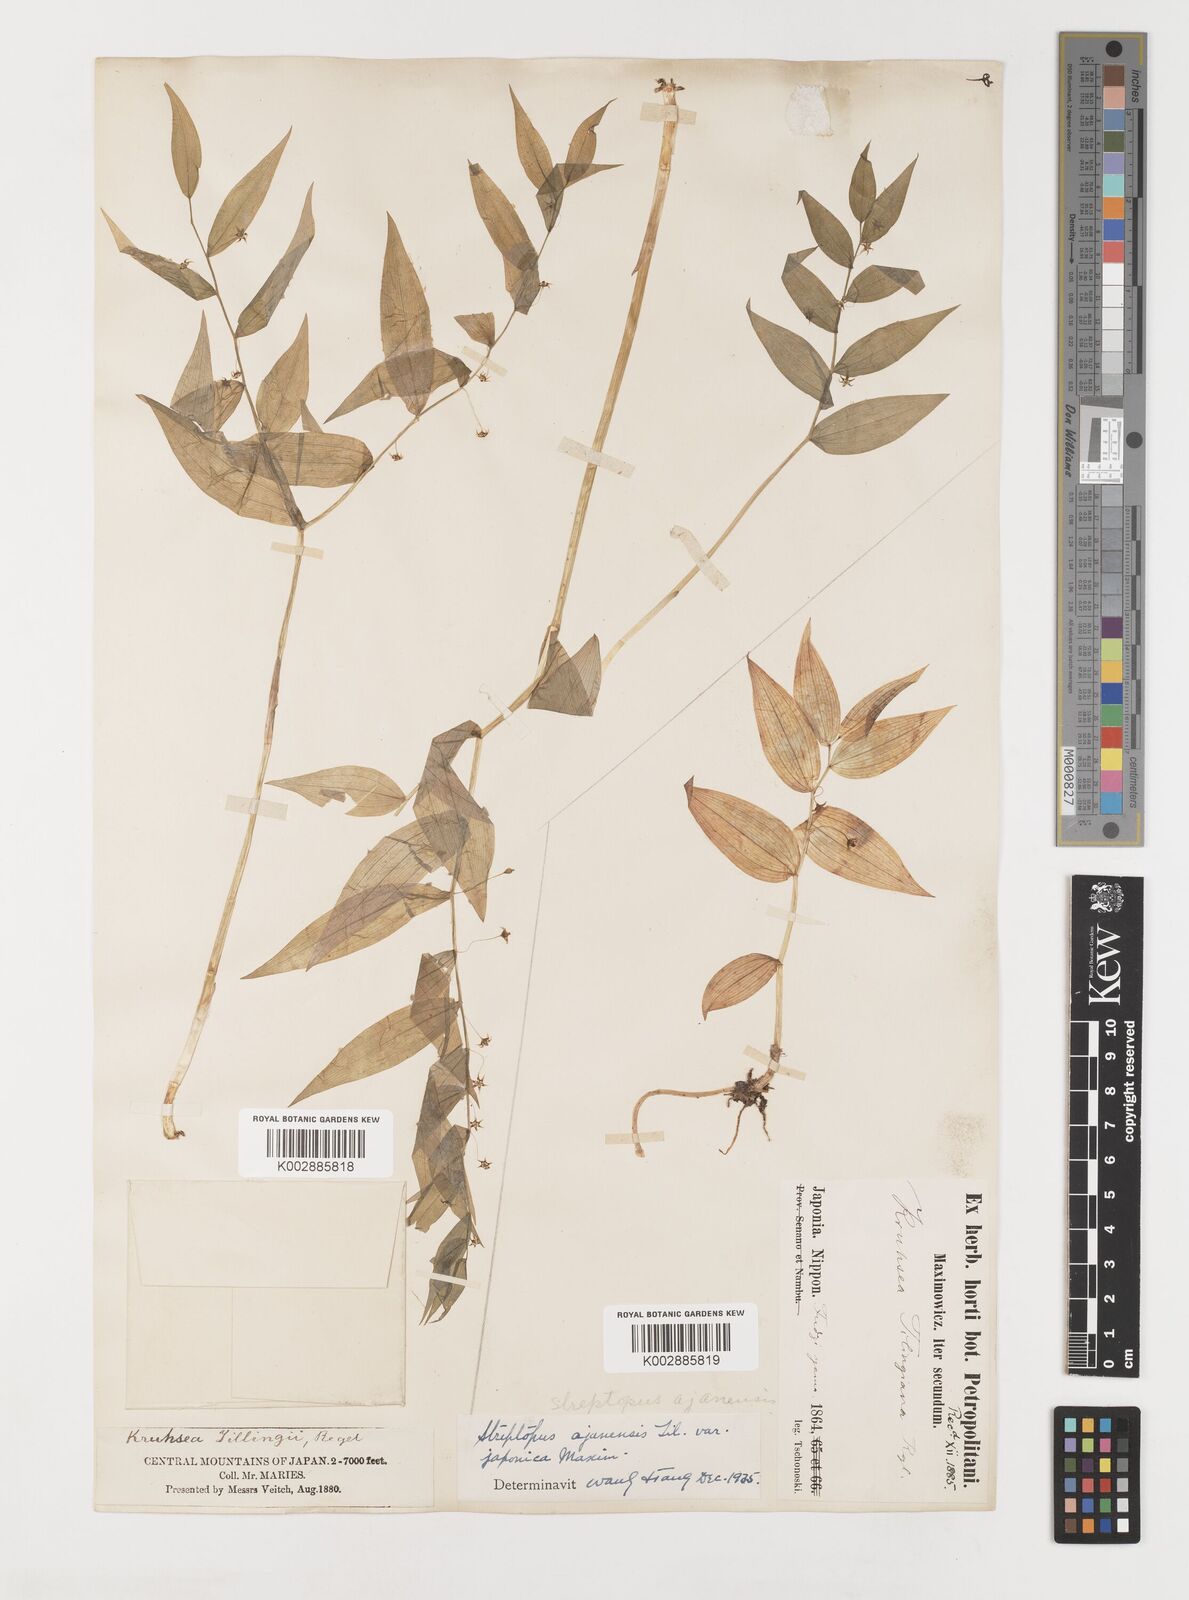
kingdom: Plantae
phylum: Tracheophyta
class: Liliopsida
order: Liliales
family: Liliaceae
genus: Streptopus
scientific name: Streptopus
